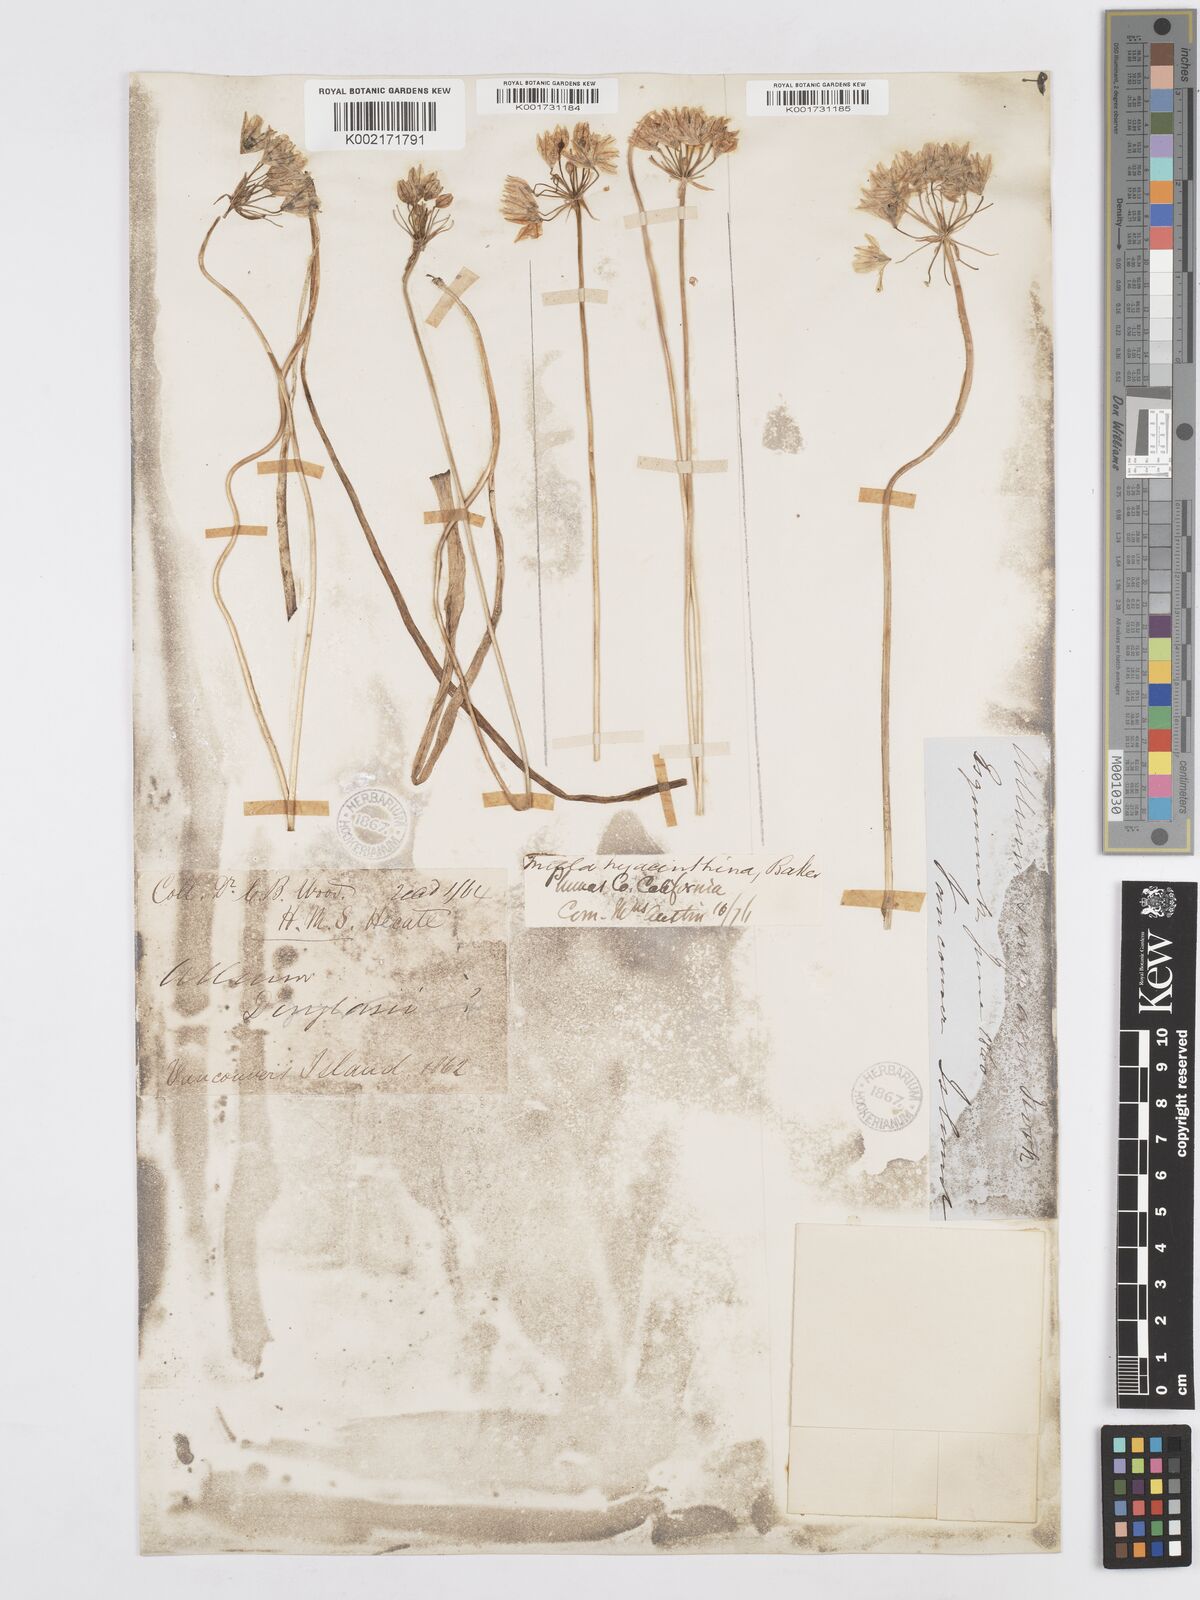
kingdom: Plantae
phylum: Tracheophyta
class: Liliopsida
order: Asparagales
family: Asparagaceae
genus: Triteleia
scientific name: Triteleia hyacinthina
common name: White brodiaea
